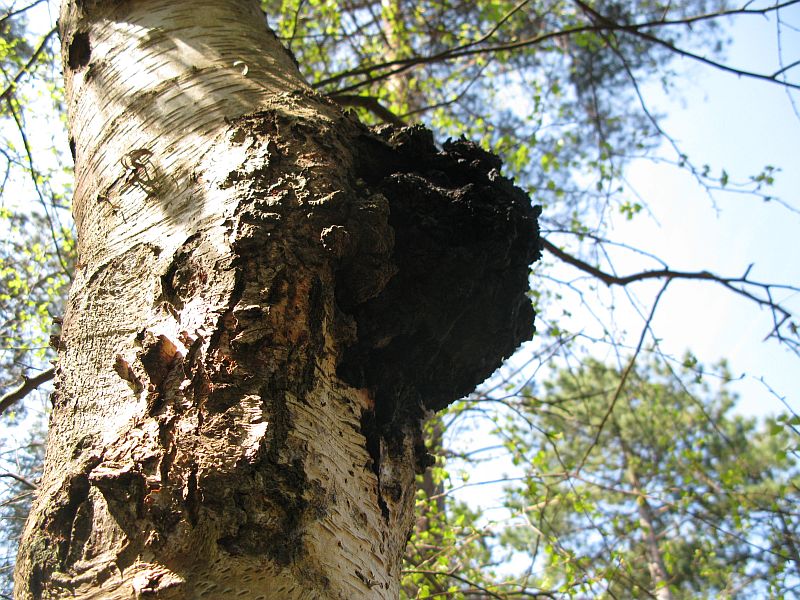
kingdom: Fungi
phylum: Basidiomycota
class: Agaricomycetes
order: Hymenochaetales
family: Hymenochaetaceae
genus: Inonotus
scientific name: Inonotus obliquus
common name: birke-spejlporesvamp
